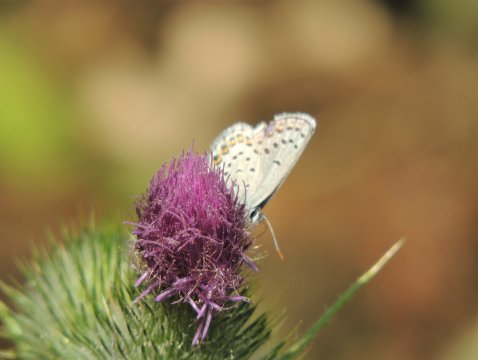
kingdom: Animalia
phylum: Arthropoda
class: Insecta
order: Lepidoptera
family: Lycaenidae
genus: Lycaeides
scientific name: Lycaeides melissa
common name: Melissa Blue
